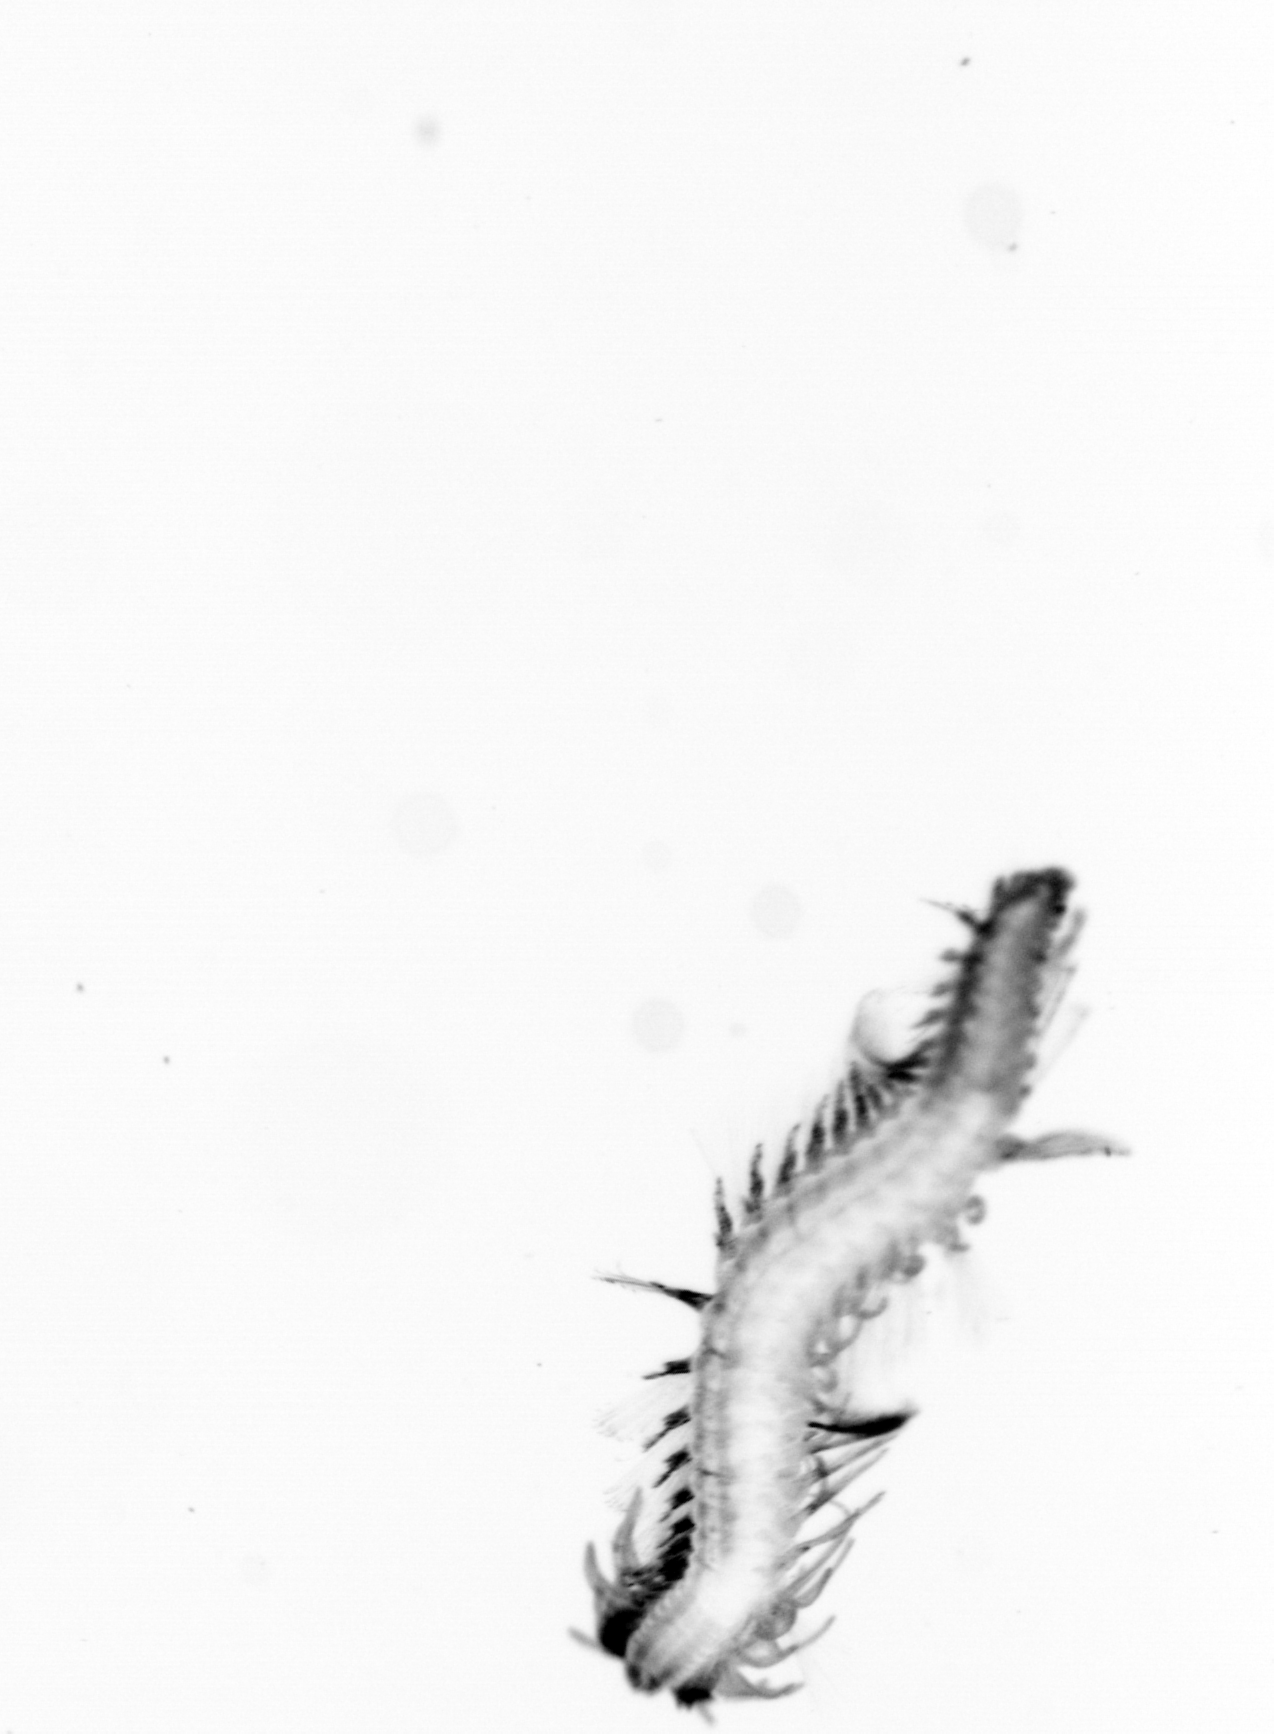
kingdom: Animalia
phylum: Annelida
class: Polychaeta
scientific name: Polychaeta
